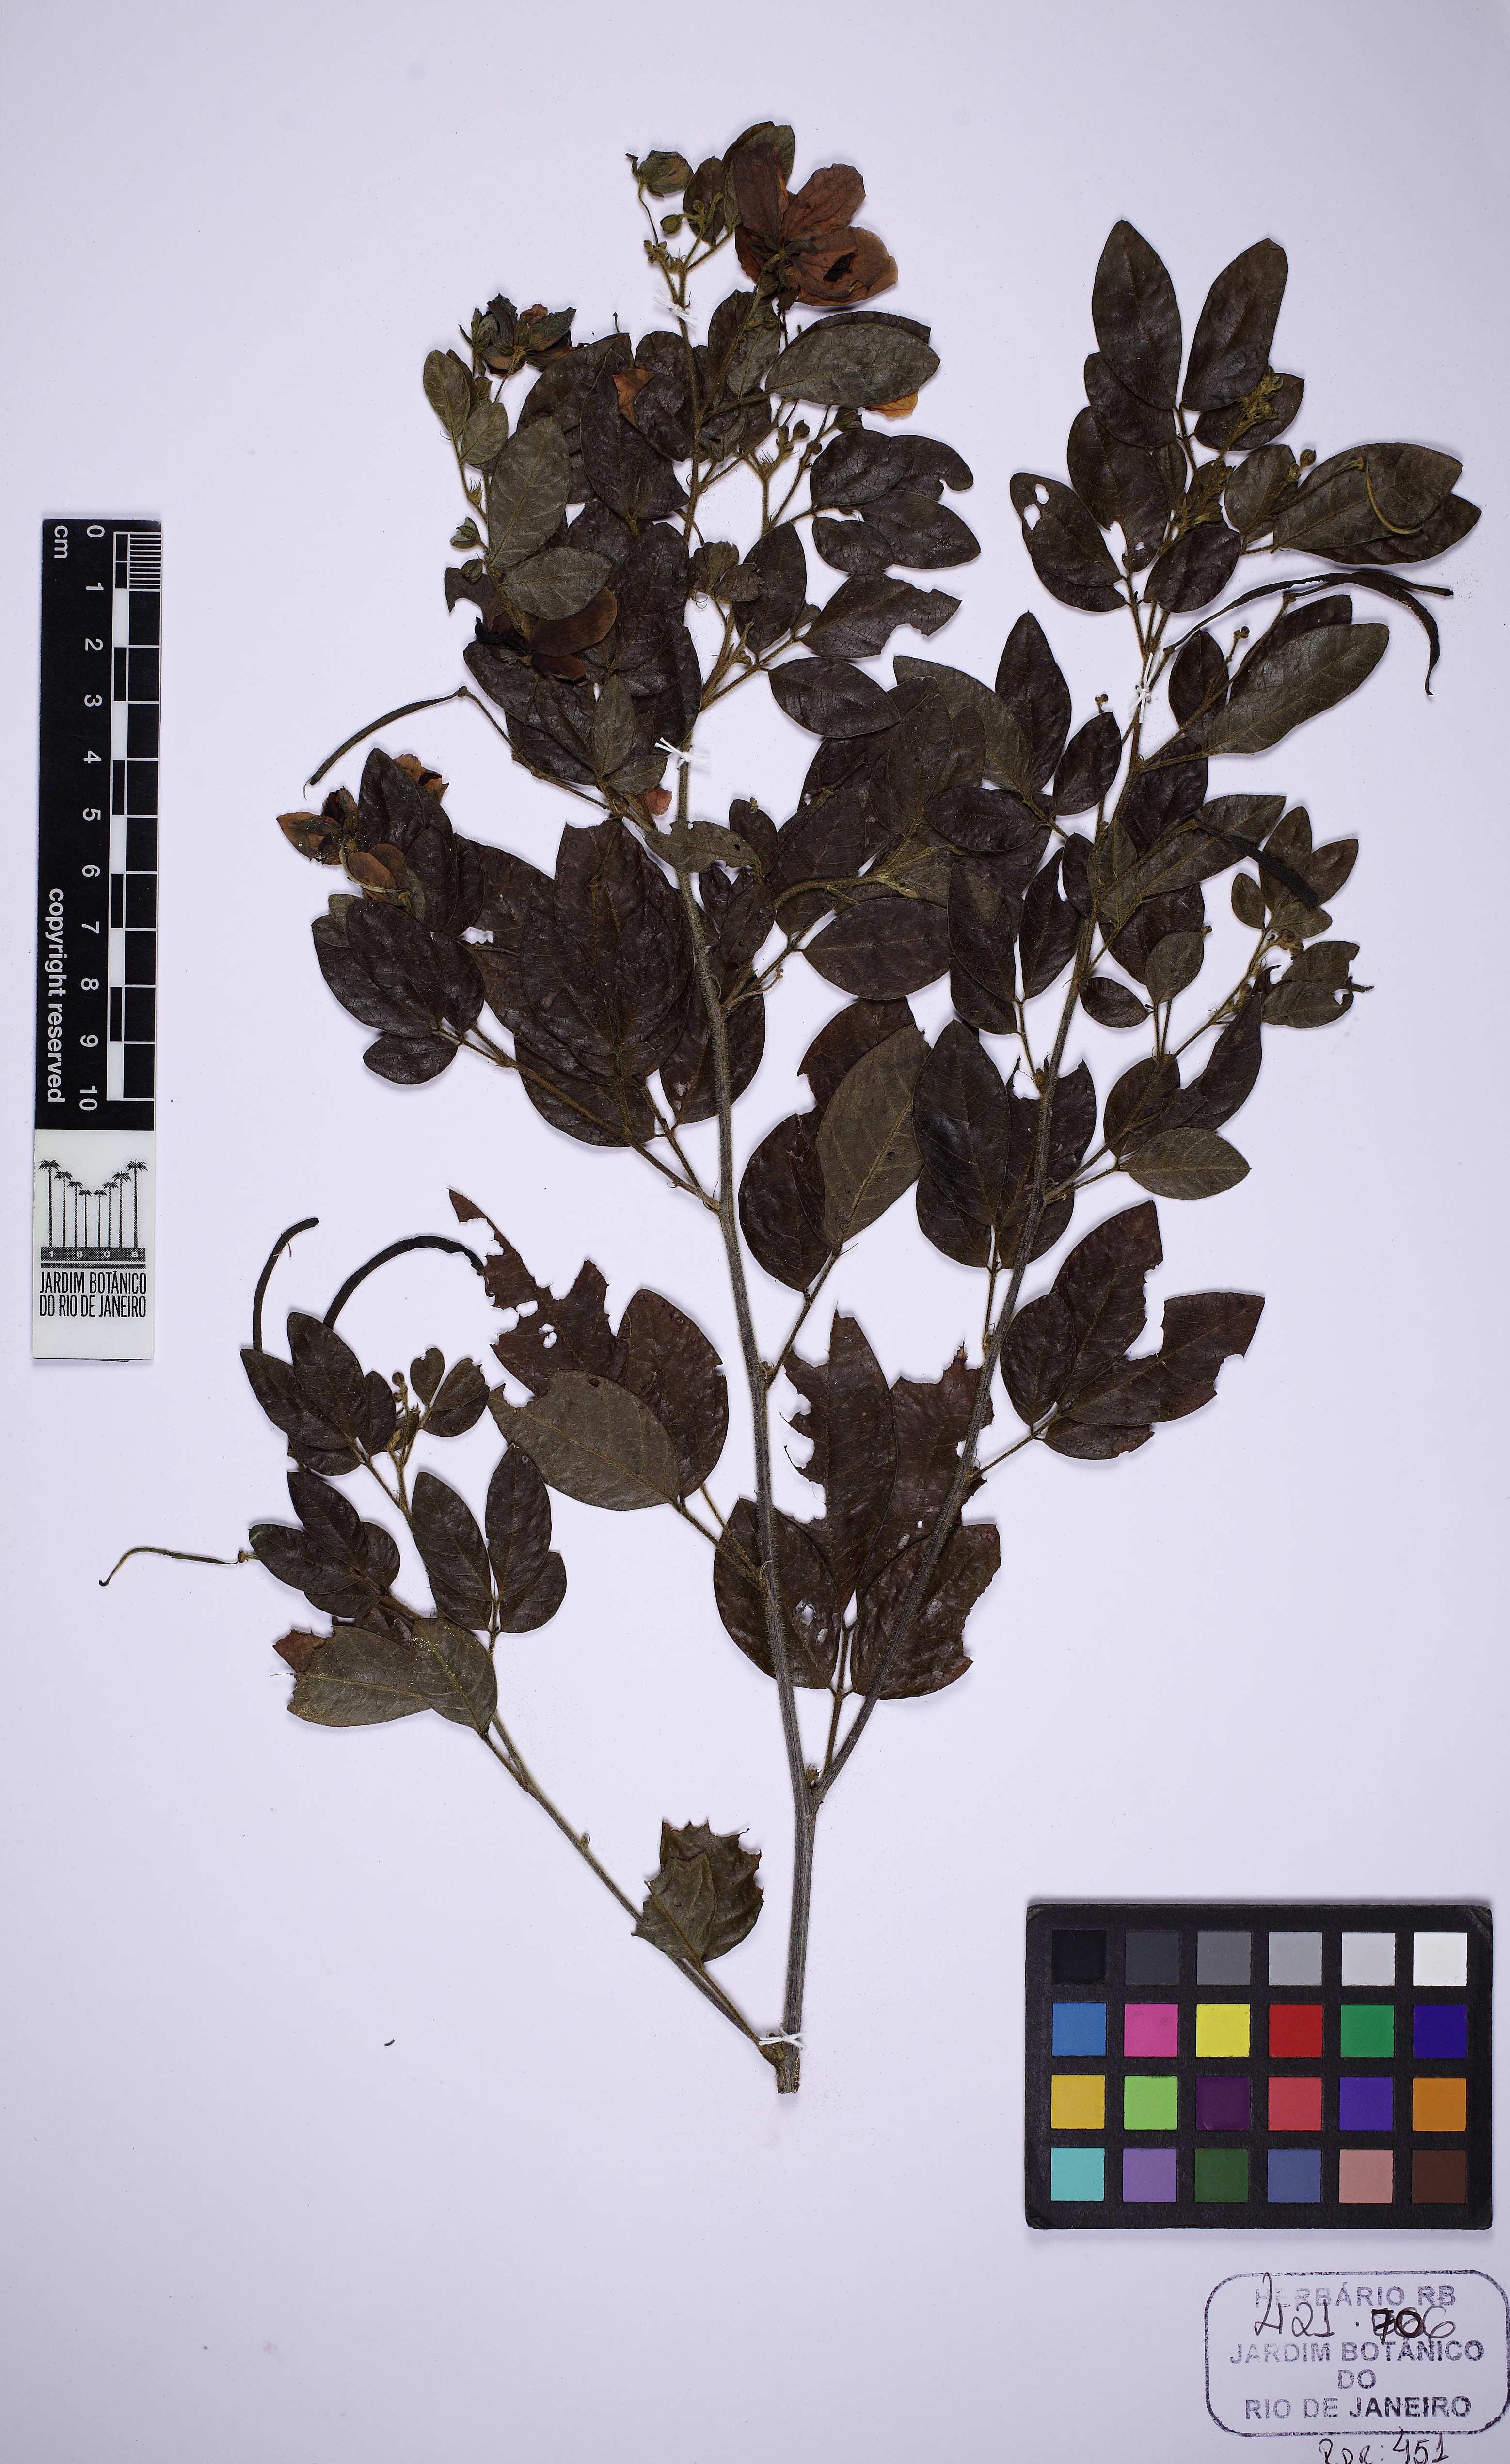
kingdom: Plantae
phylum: Tracheophyta
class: Magnoliopsida
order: Fabales
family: Fabaceae
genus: Senna
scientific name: Senna tenuifolia
